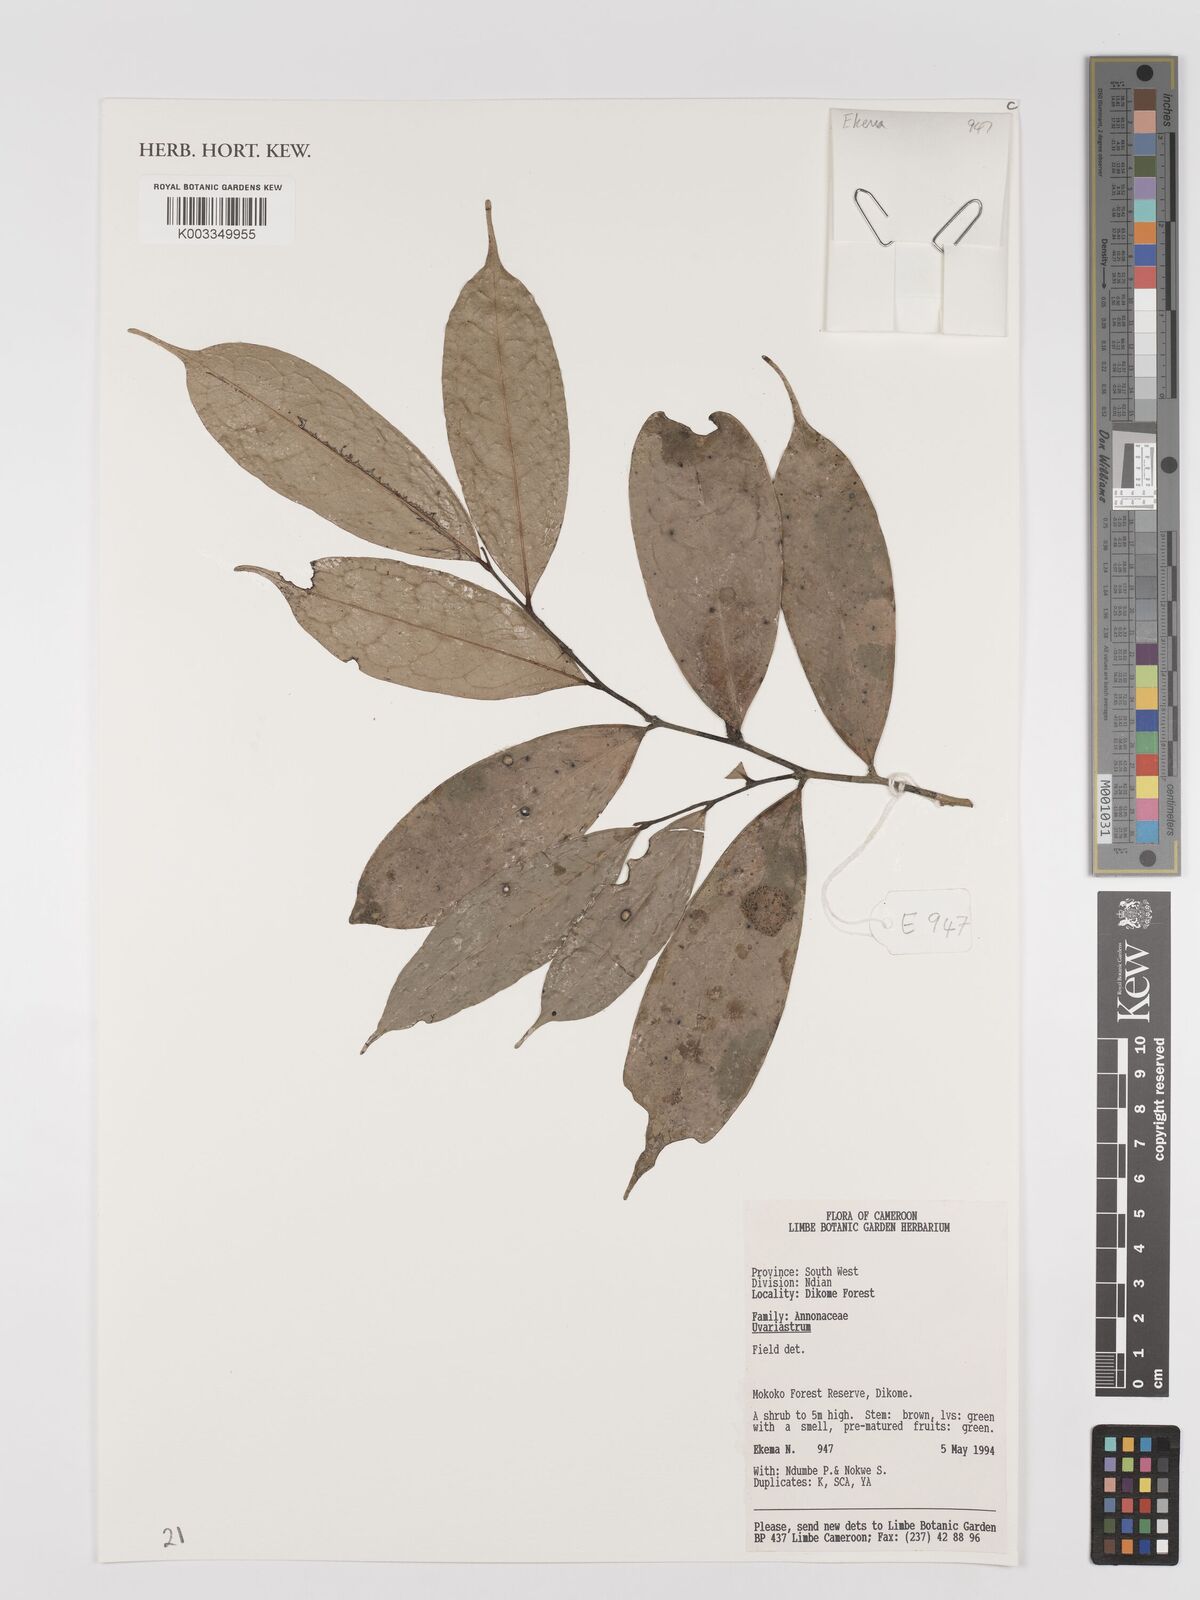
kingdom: Plantae
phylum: Tracheophyta
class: Magnoliopsida
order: Magnoliales
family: Annonaceae
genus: Uvariastrum
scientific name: Uvariastrum
